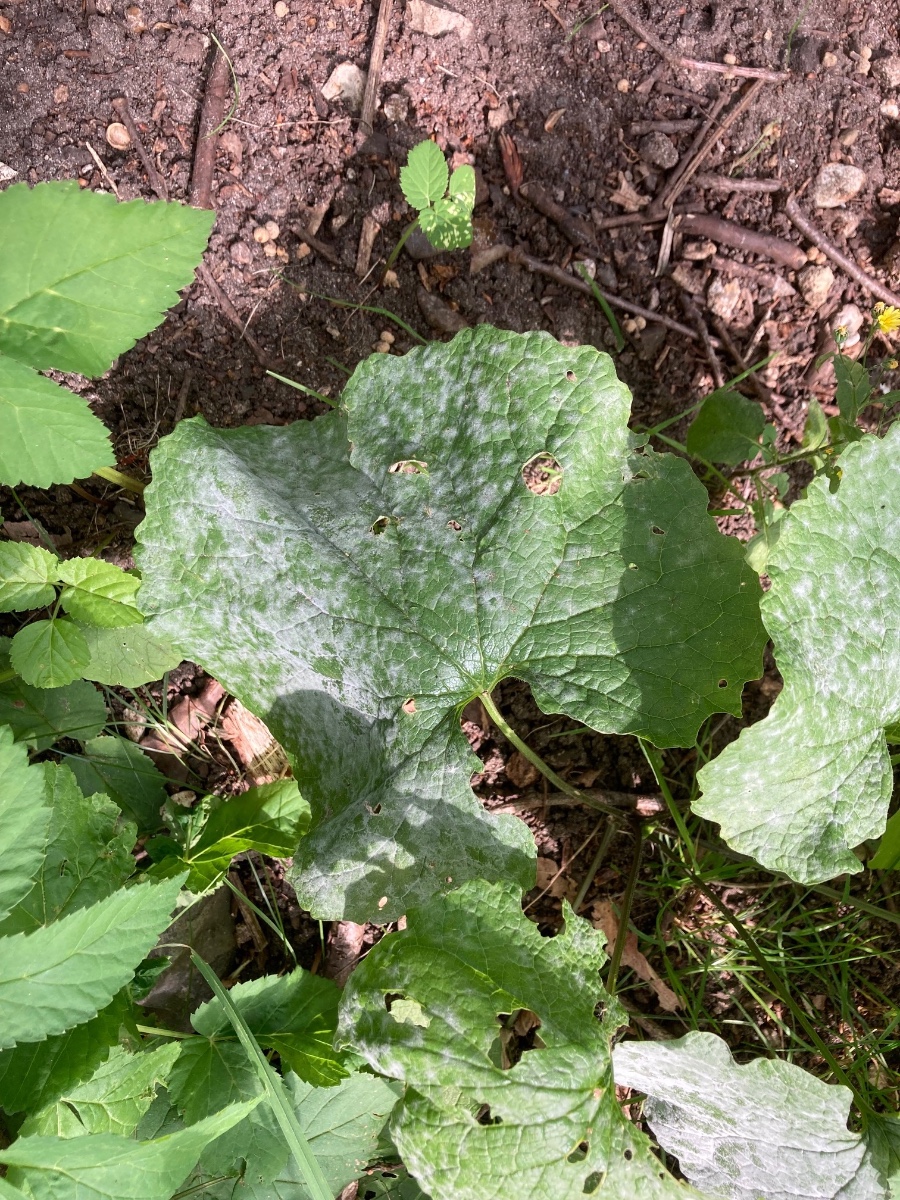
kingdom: Fungi
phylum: Ascomycota
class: Leotiomycetes
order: Helotiales
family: Erysiphaceae
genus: Erysiphe
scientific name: Erysiphe cruciferarum
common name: korsblomst-meldug
